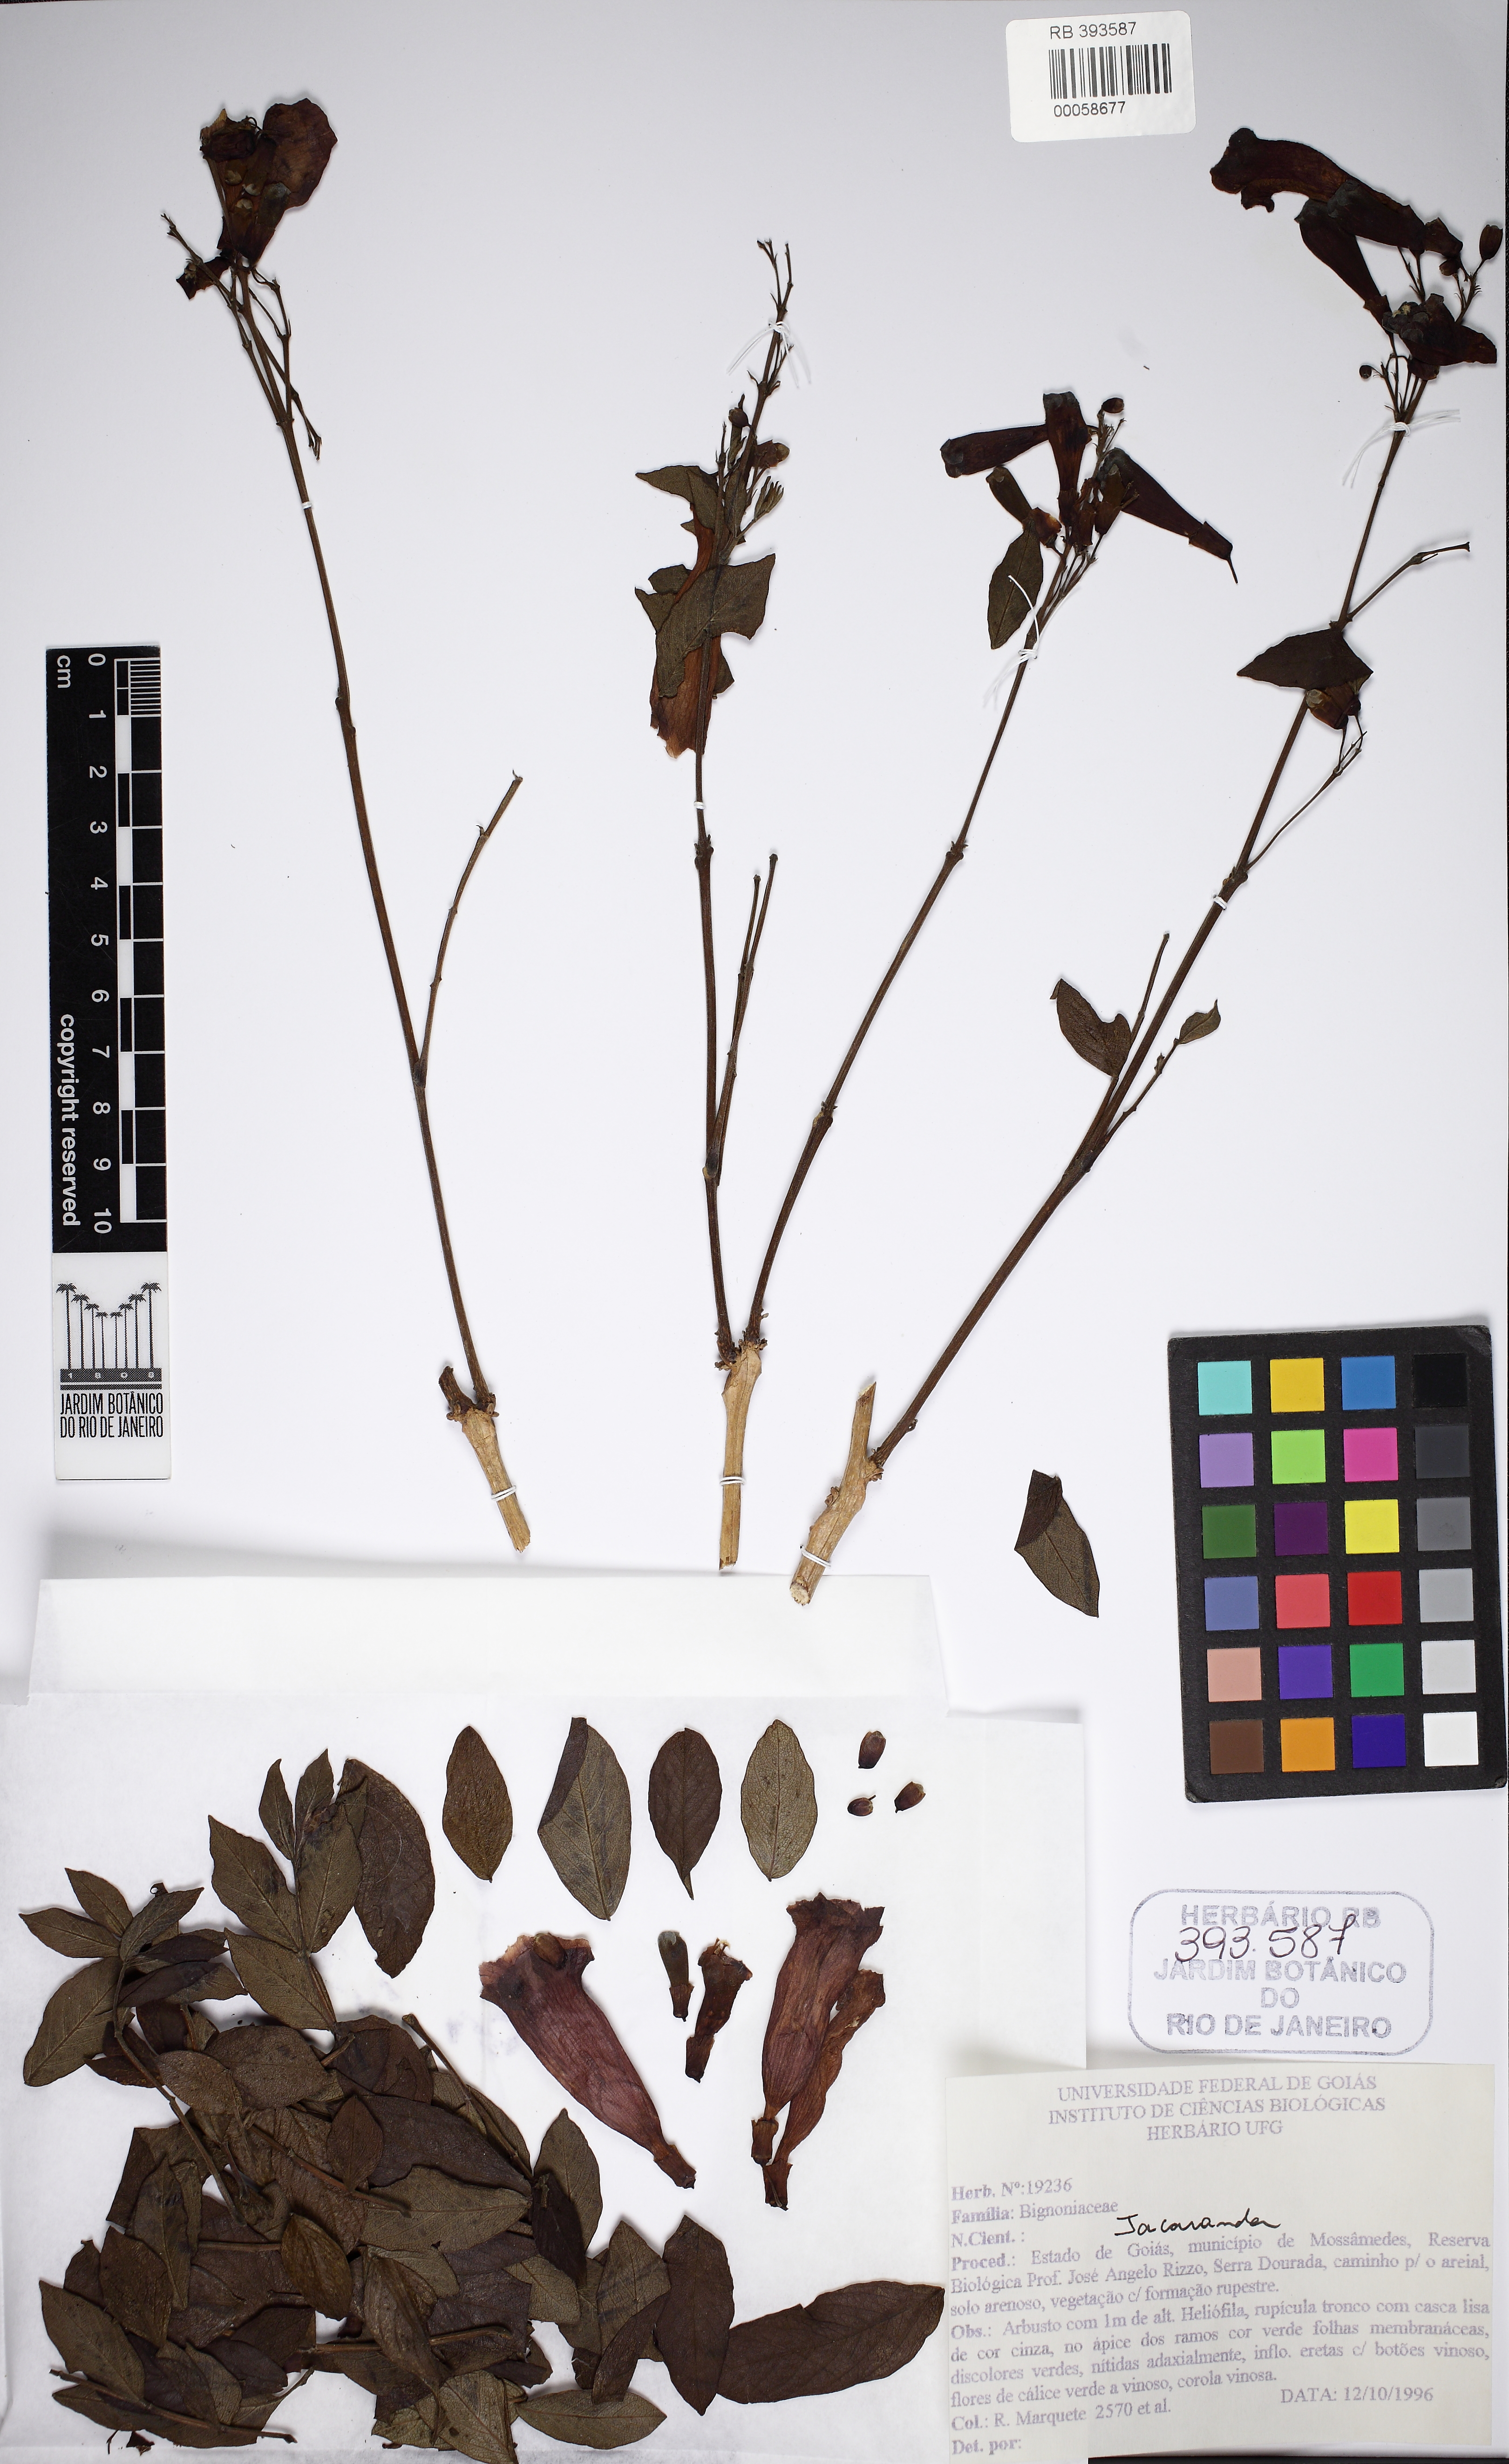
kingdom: Plantae
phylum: Tracheophyta
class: Magnoliopsida
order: Lamiales
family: Bignoniaceae
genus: Jacaranda
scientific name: Jacaranda
